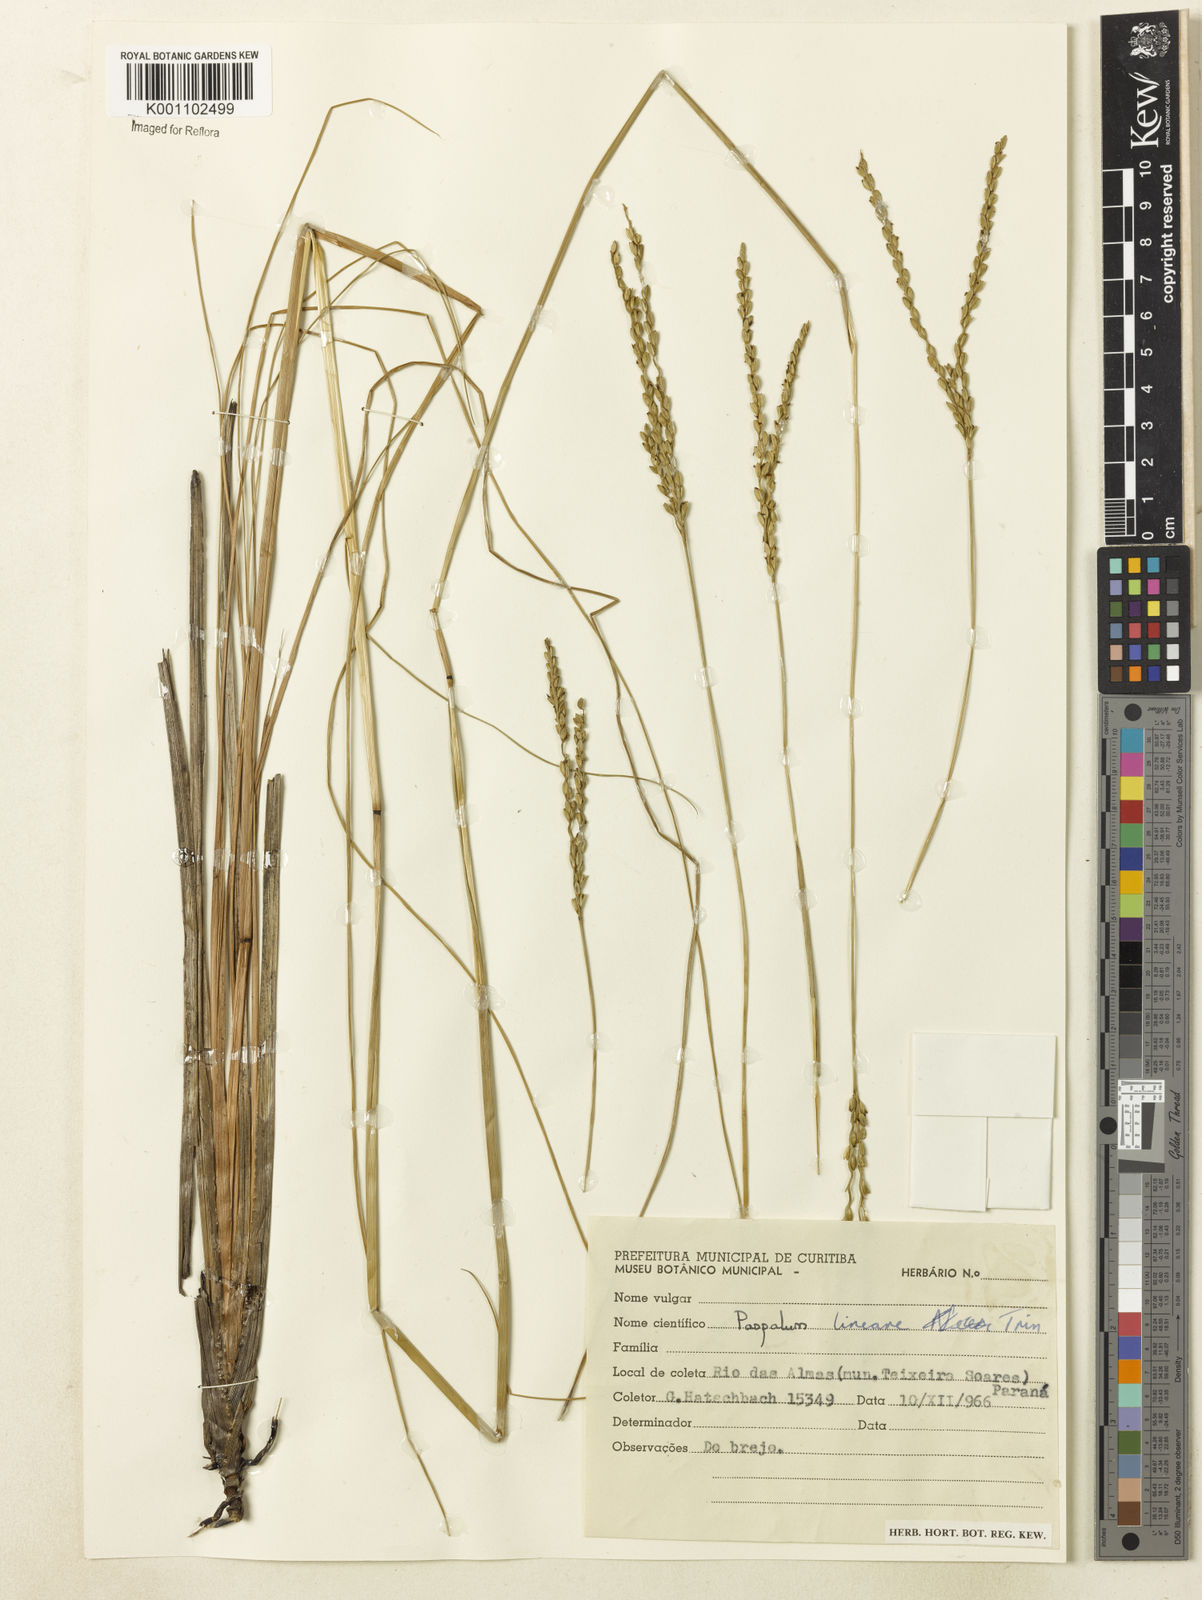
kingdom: Plantae
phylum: Tracheophyta
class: Liliopsida
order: Poales
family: Poaceae
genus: Paspalum
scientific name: Paspalum filifolium
